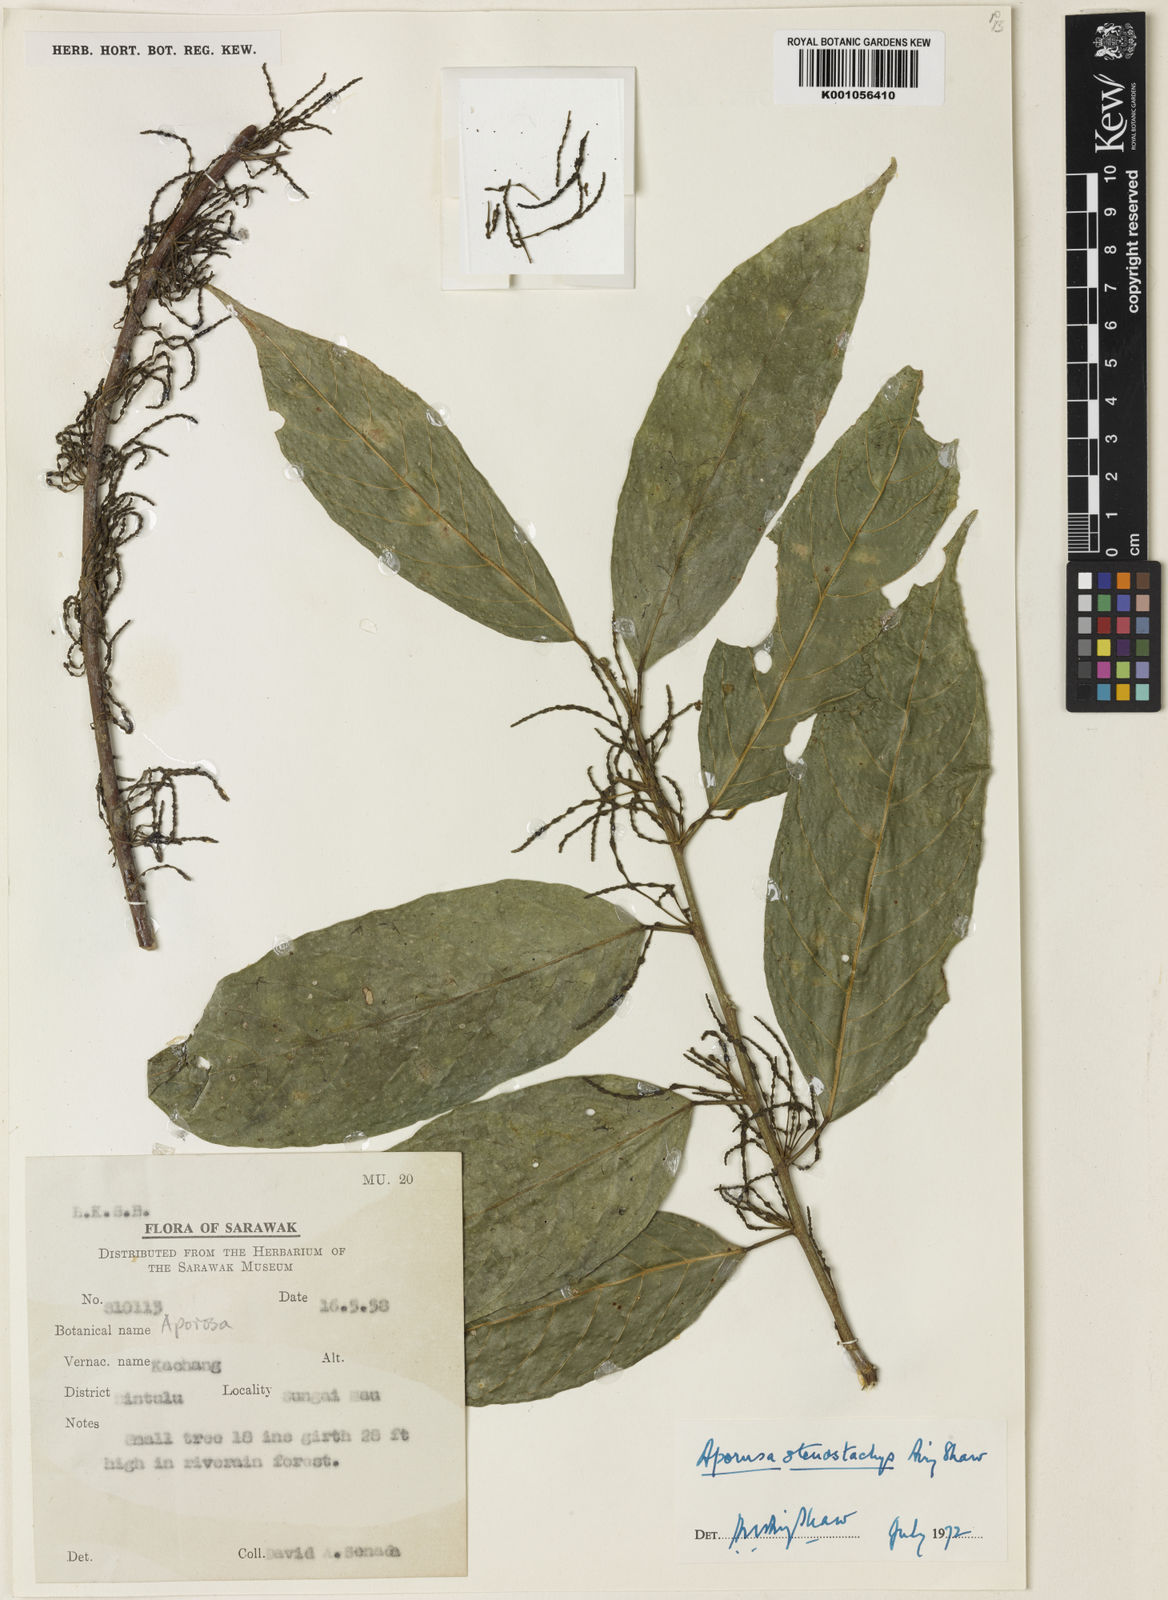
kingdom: Plantae
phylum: Tracheophyta
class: Magnoliopsida
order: Malpighiales
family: Phyllanthaceae
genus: Aporosa
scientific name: Aporosa stenostachys
